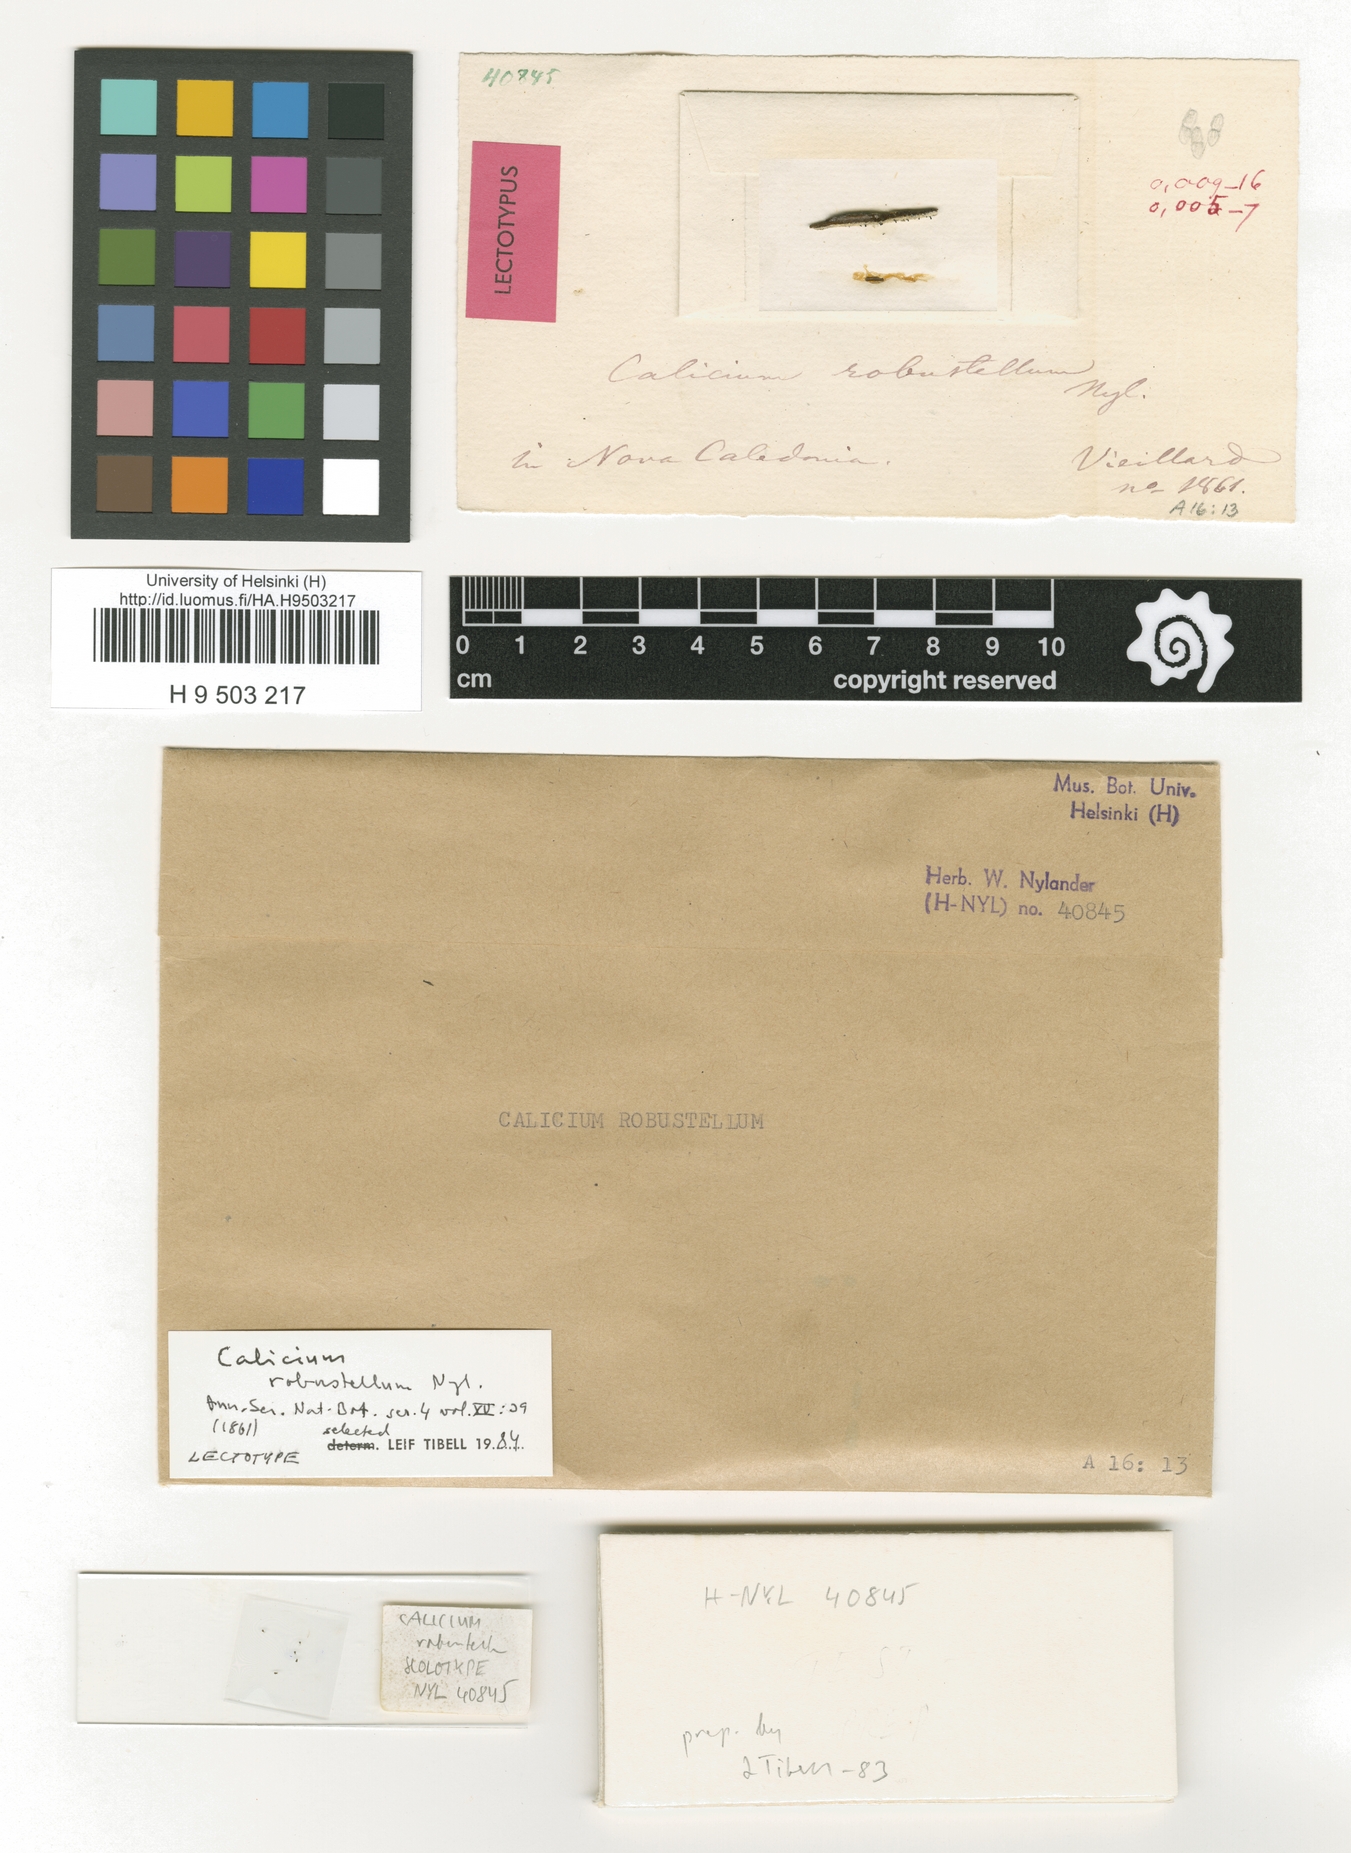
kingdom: Fungi
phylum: Ascomycota
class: Lecanoromycetes
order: Caliciales
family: Caliciaceae
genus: Calicium
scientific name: Calicium robustellum
